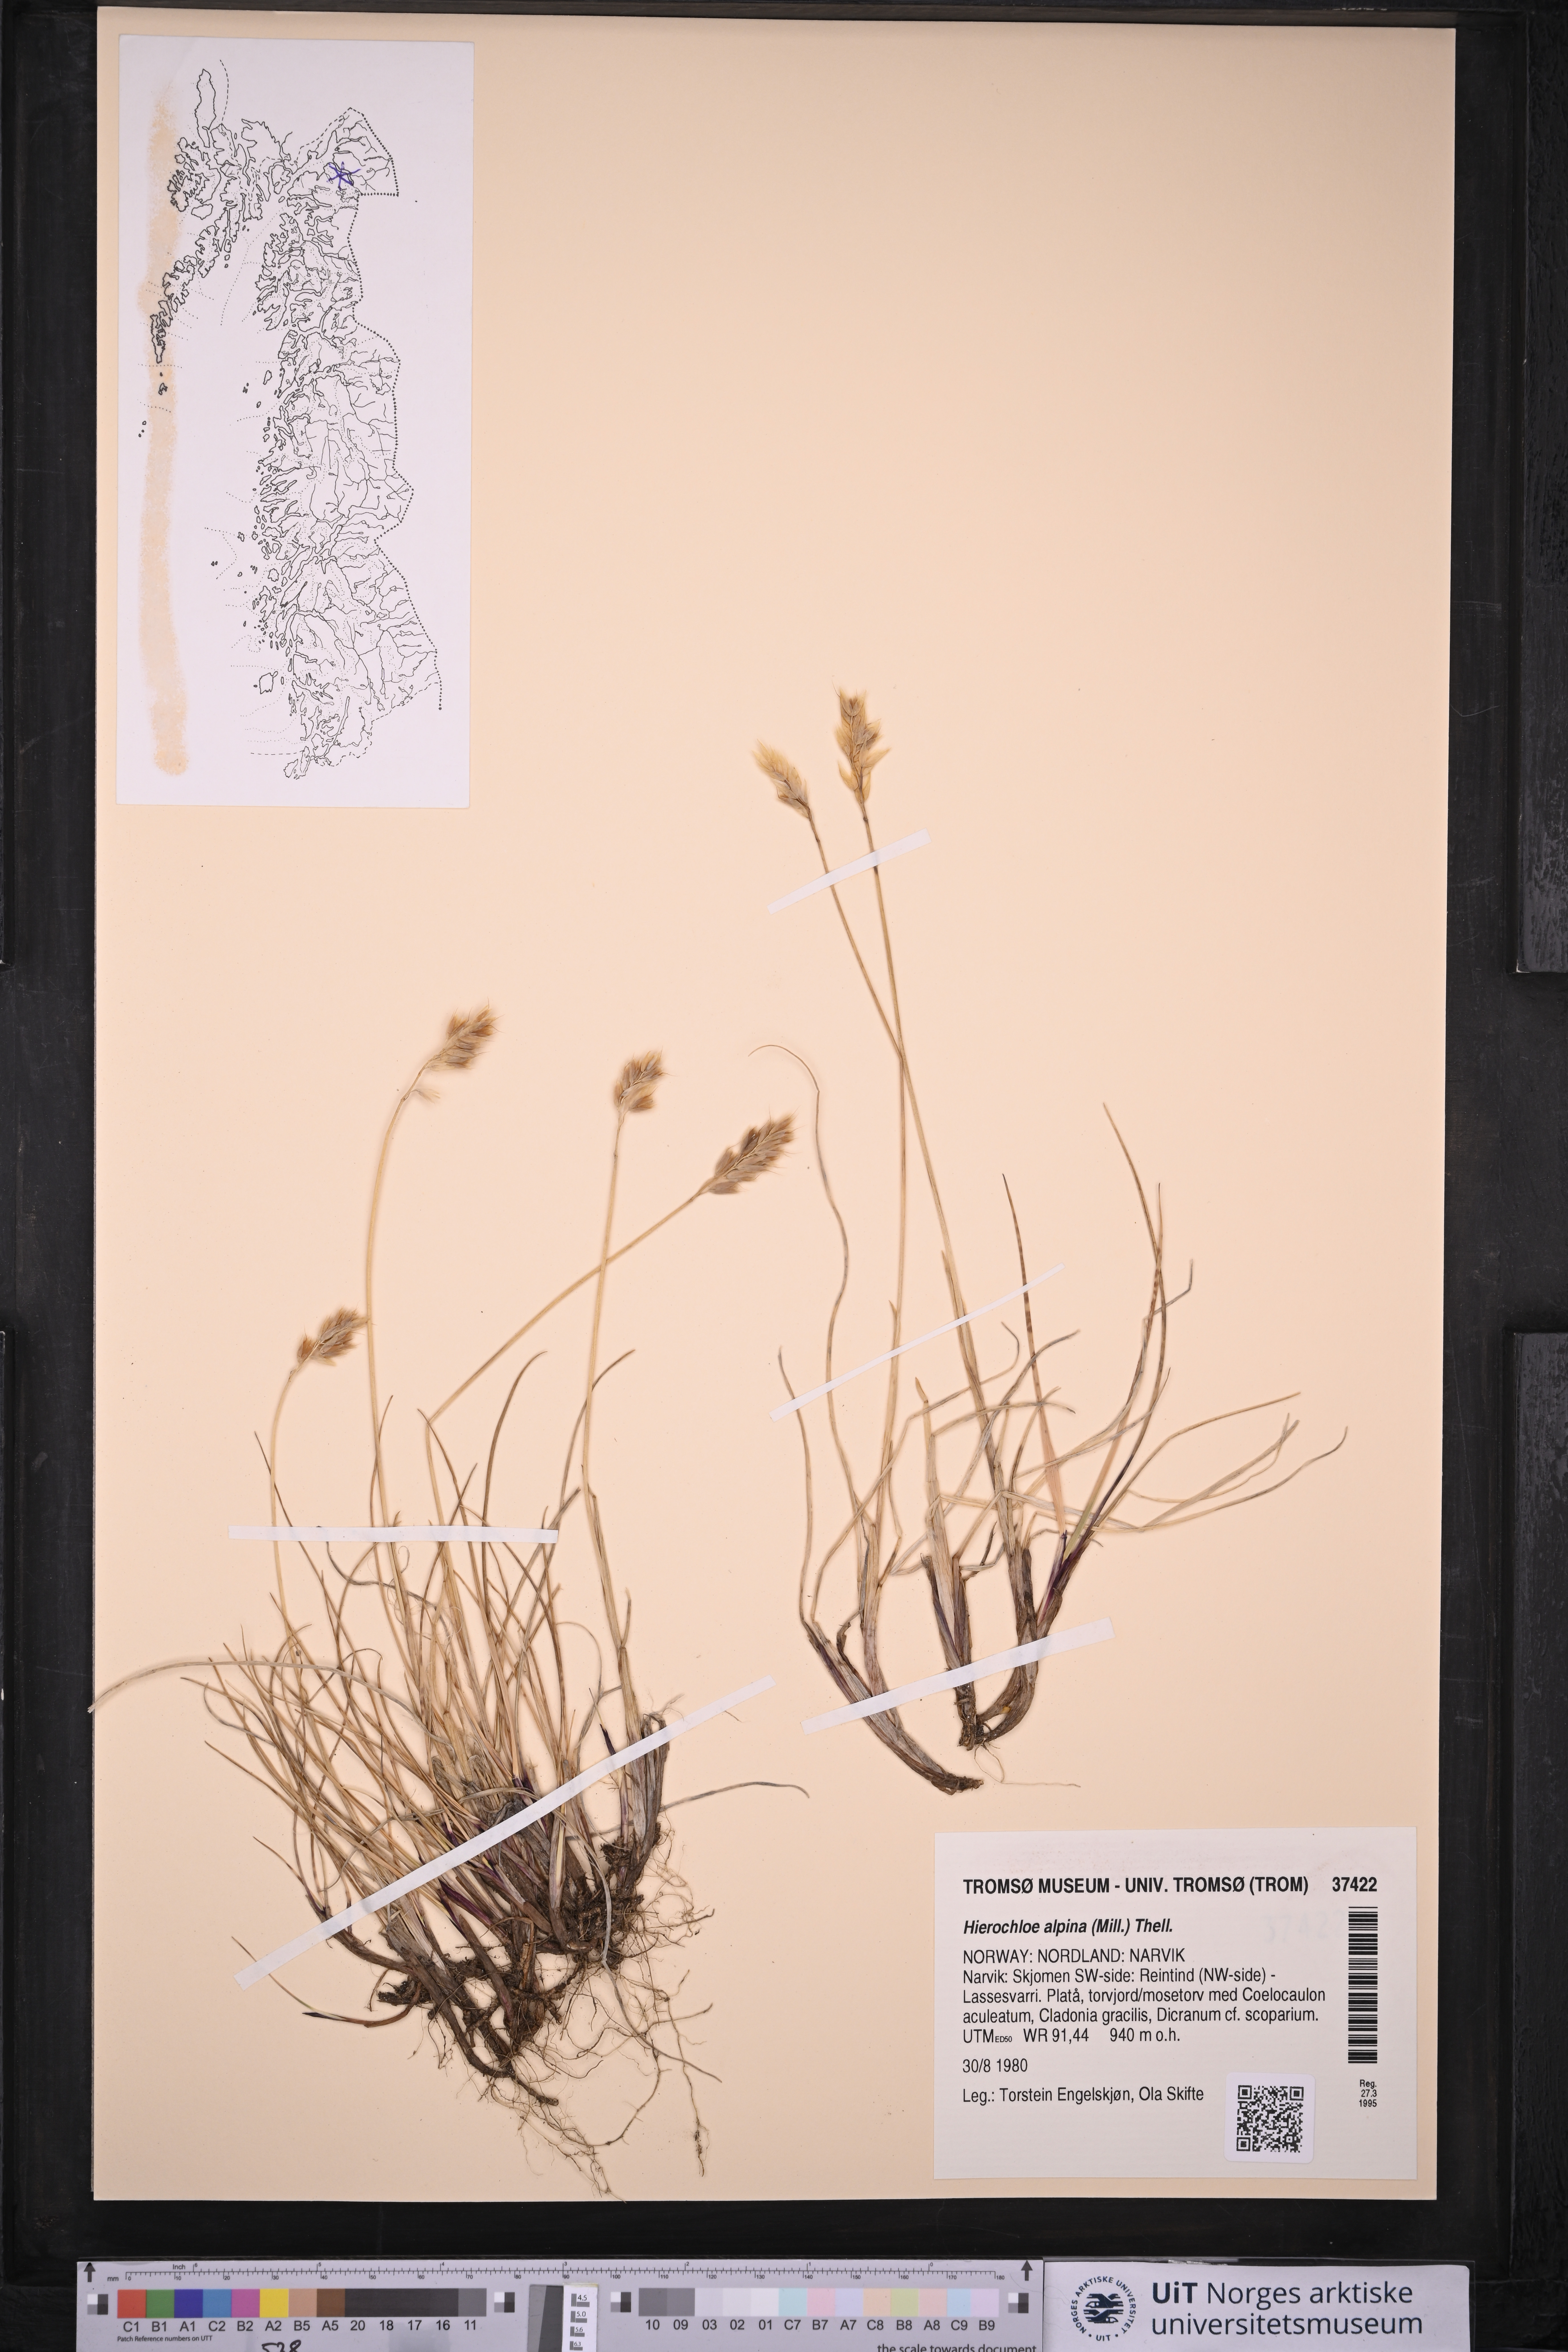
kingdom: Plantae
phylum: Tracheophyta
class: Liliopsida
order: Poales
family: Poaceae
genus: Anthoxanthum
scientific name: Anthoxanthum monticola
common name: Alpine sweetgrass
